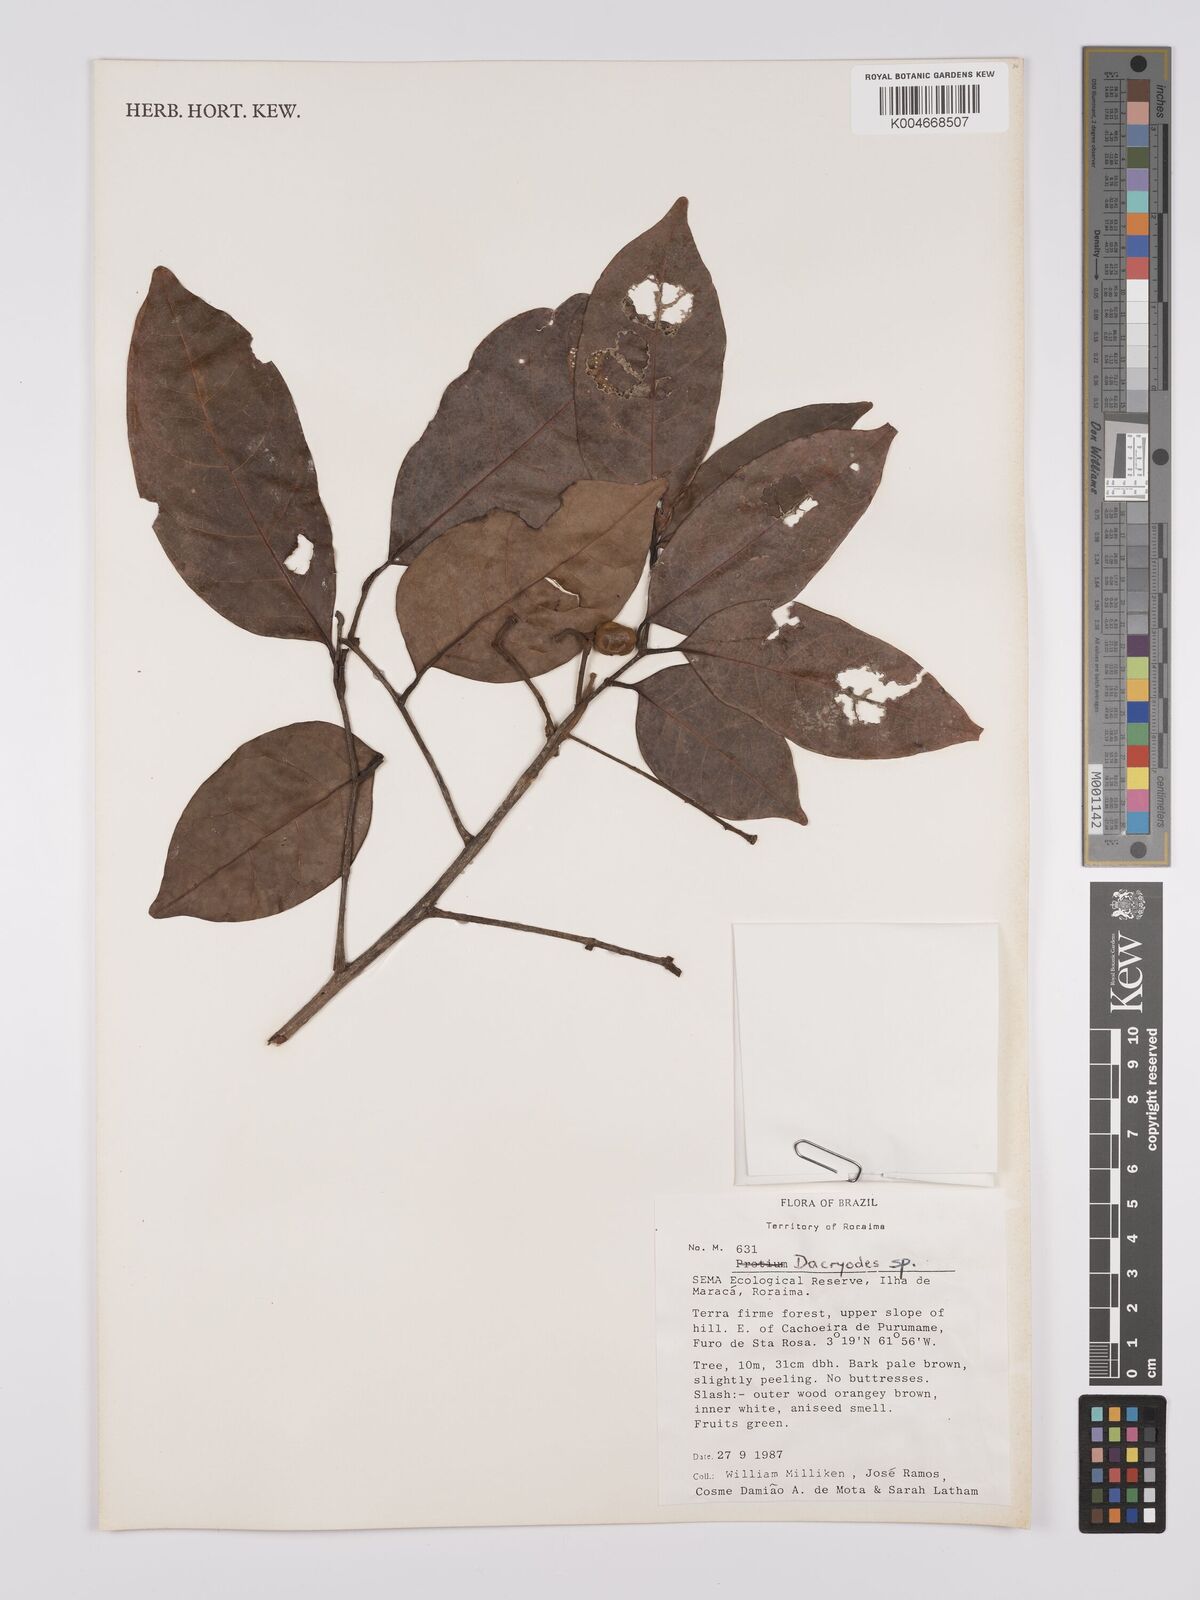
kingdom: Plantae
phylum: Tracheophyta
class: Magnoliopsida
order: Sapindales
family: Burseraceae
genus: Dacryodes
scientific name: Dacryodes
